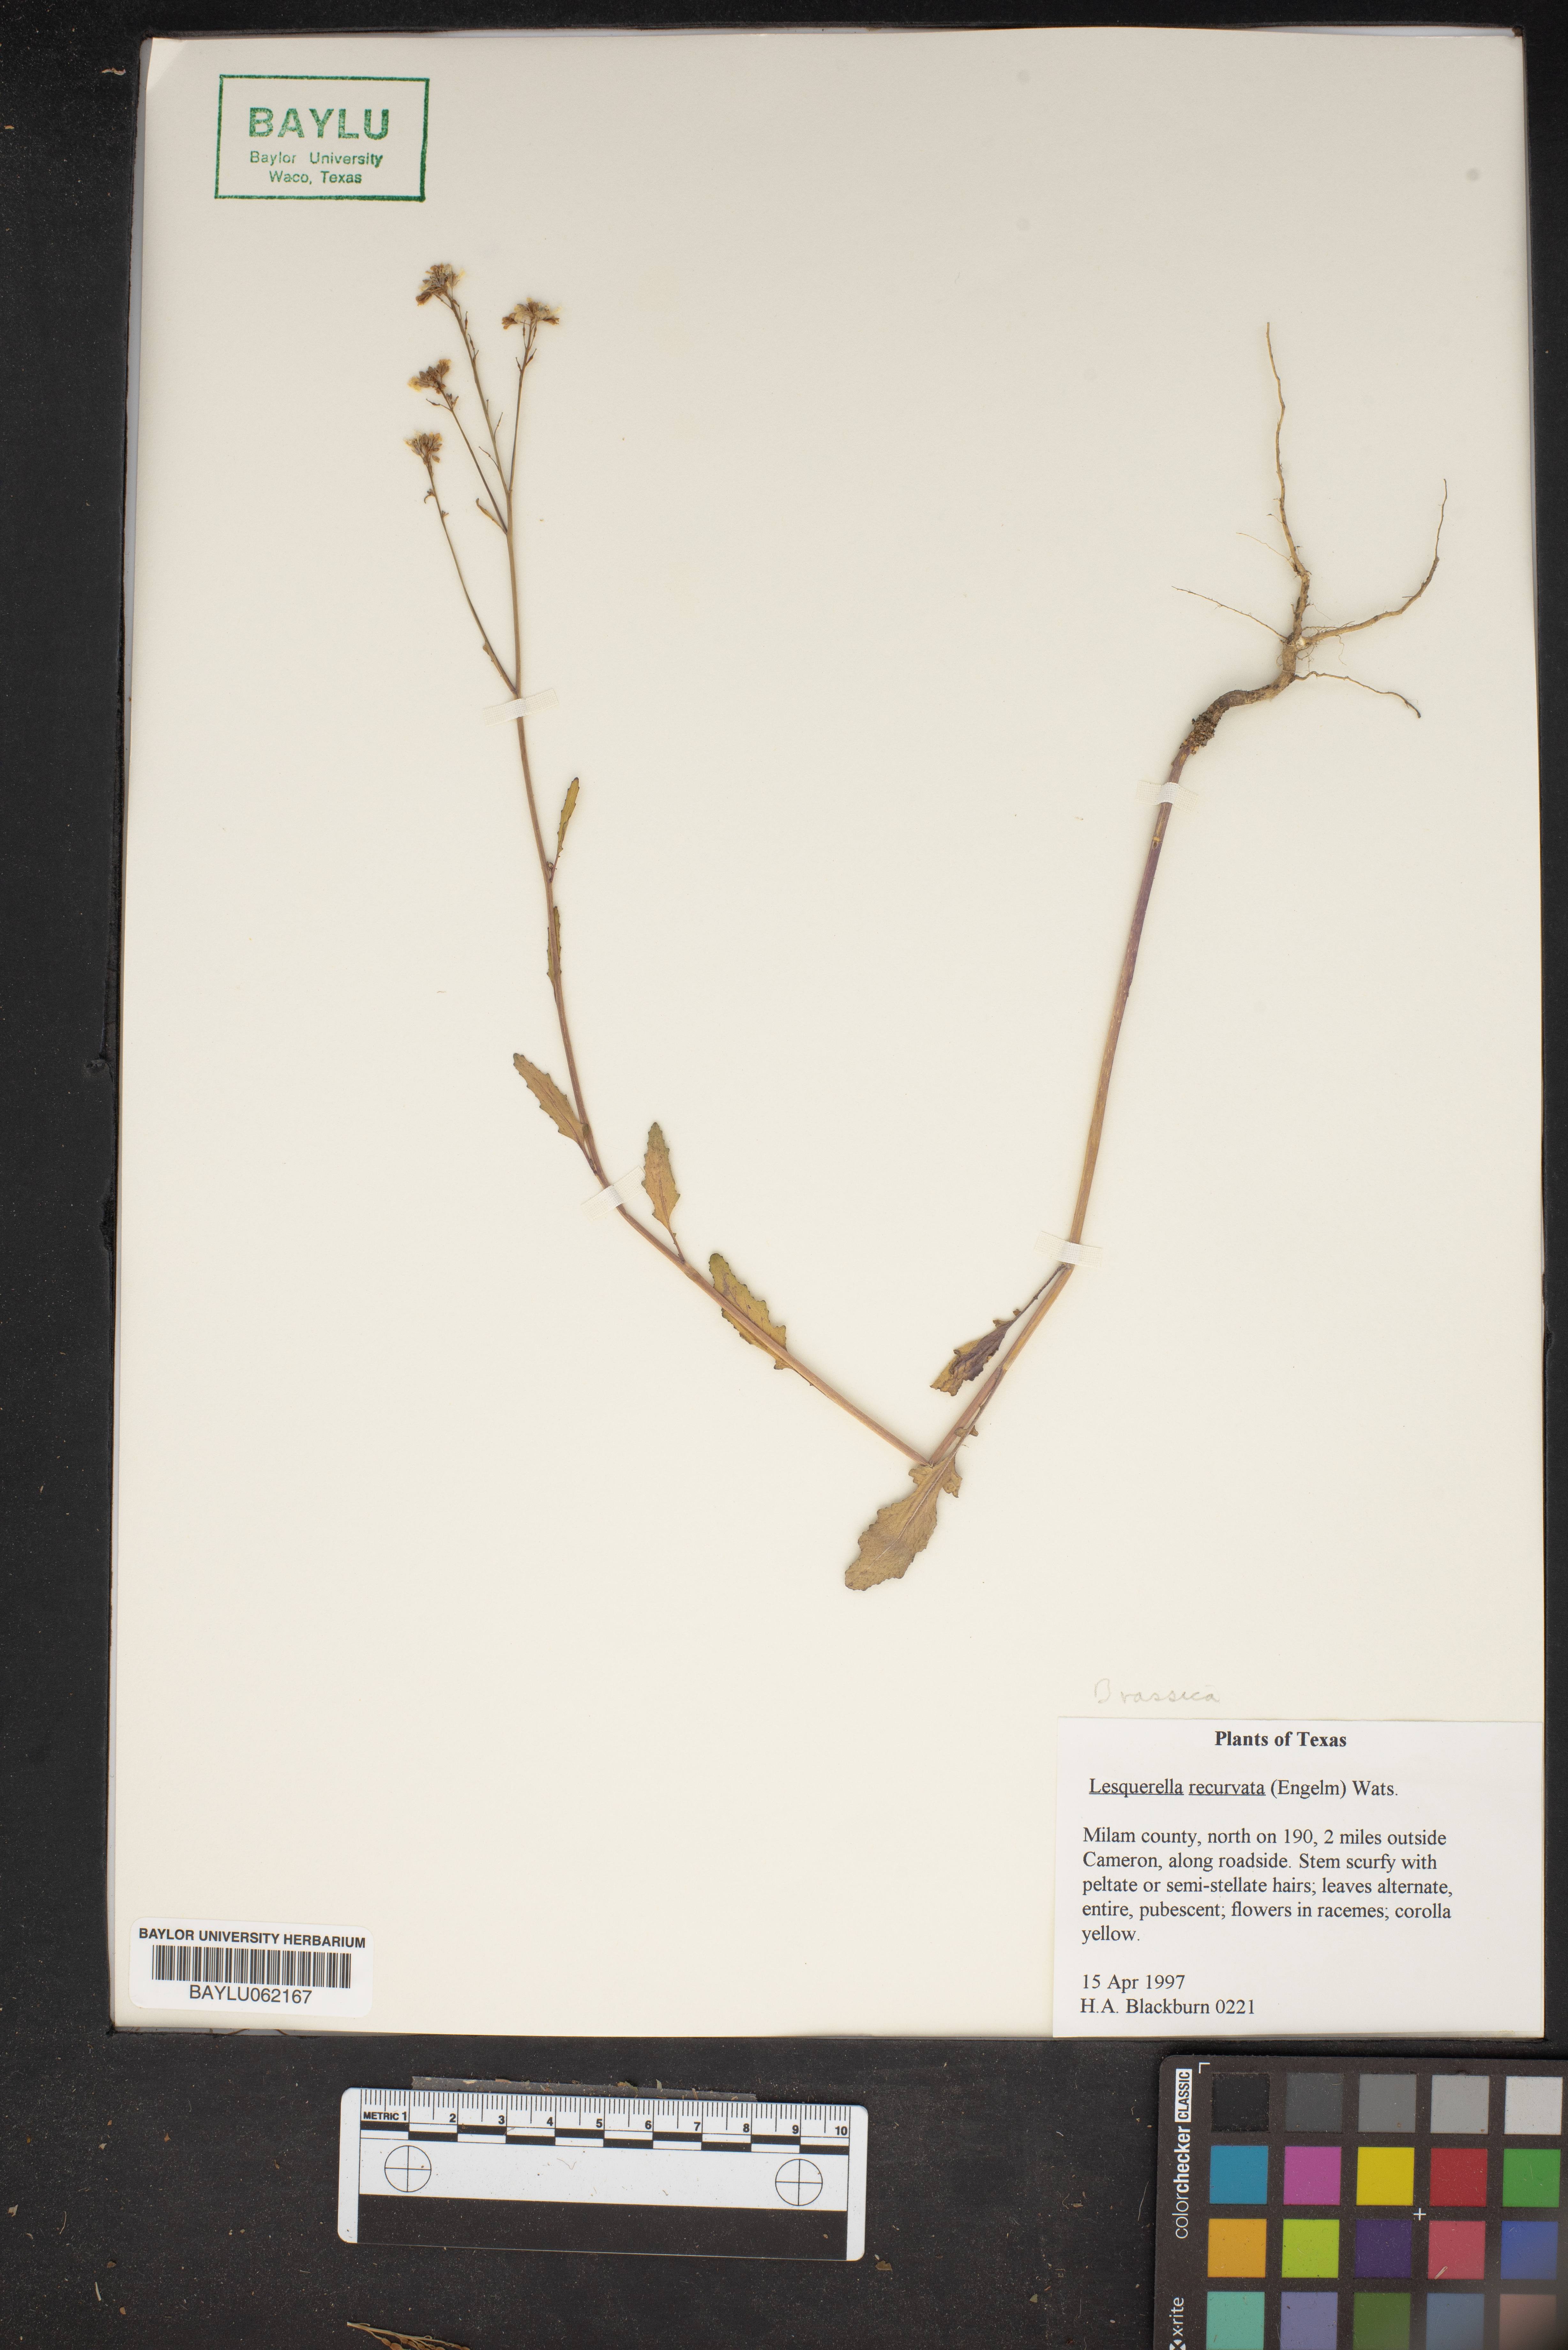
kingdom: Plantae
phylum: Tracheophyta
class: Magnoliopsida
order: Brassicales
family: Brassicaceae
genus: Physaria
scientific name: Physaria recurvata
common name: Gaslight bladderpod
